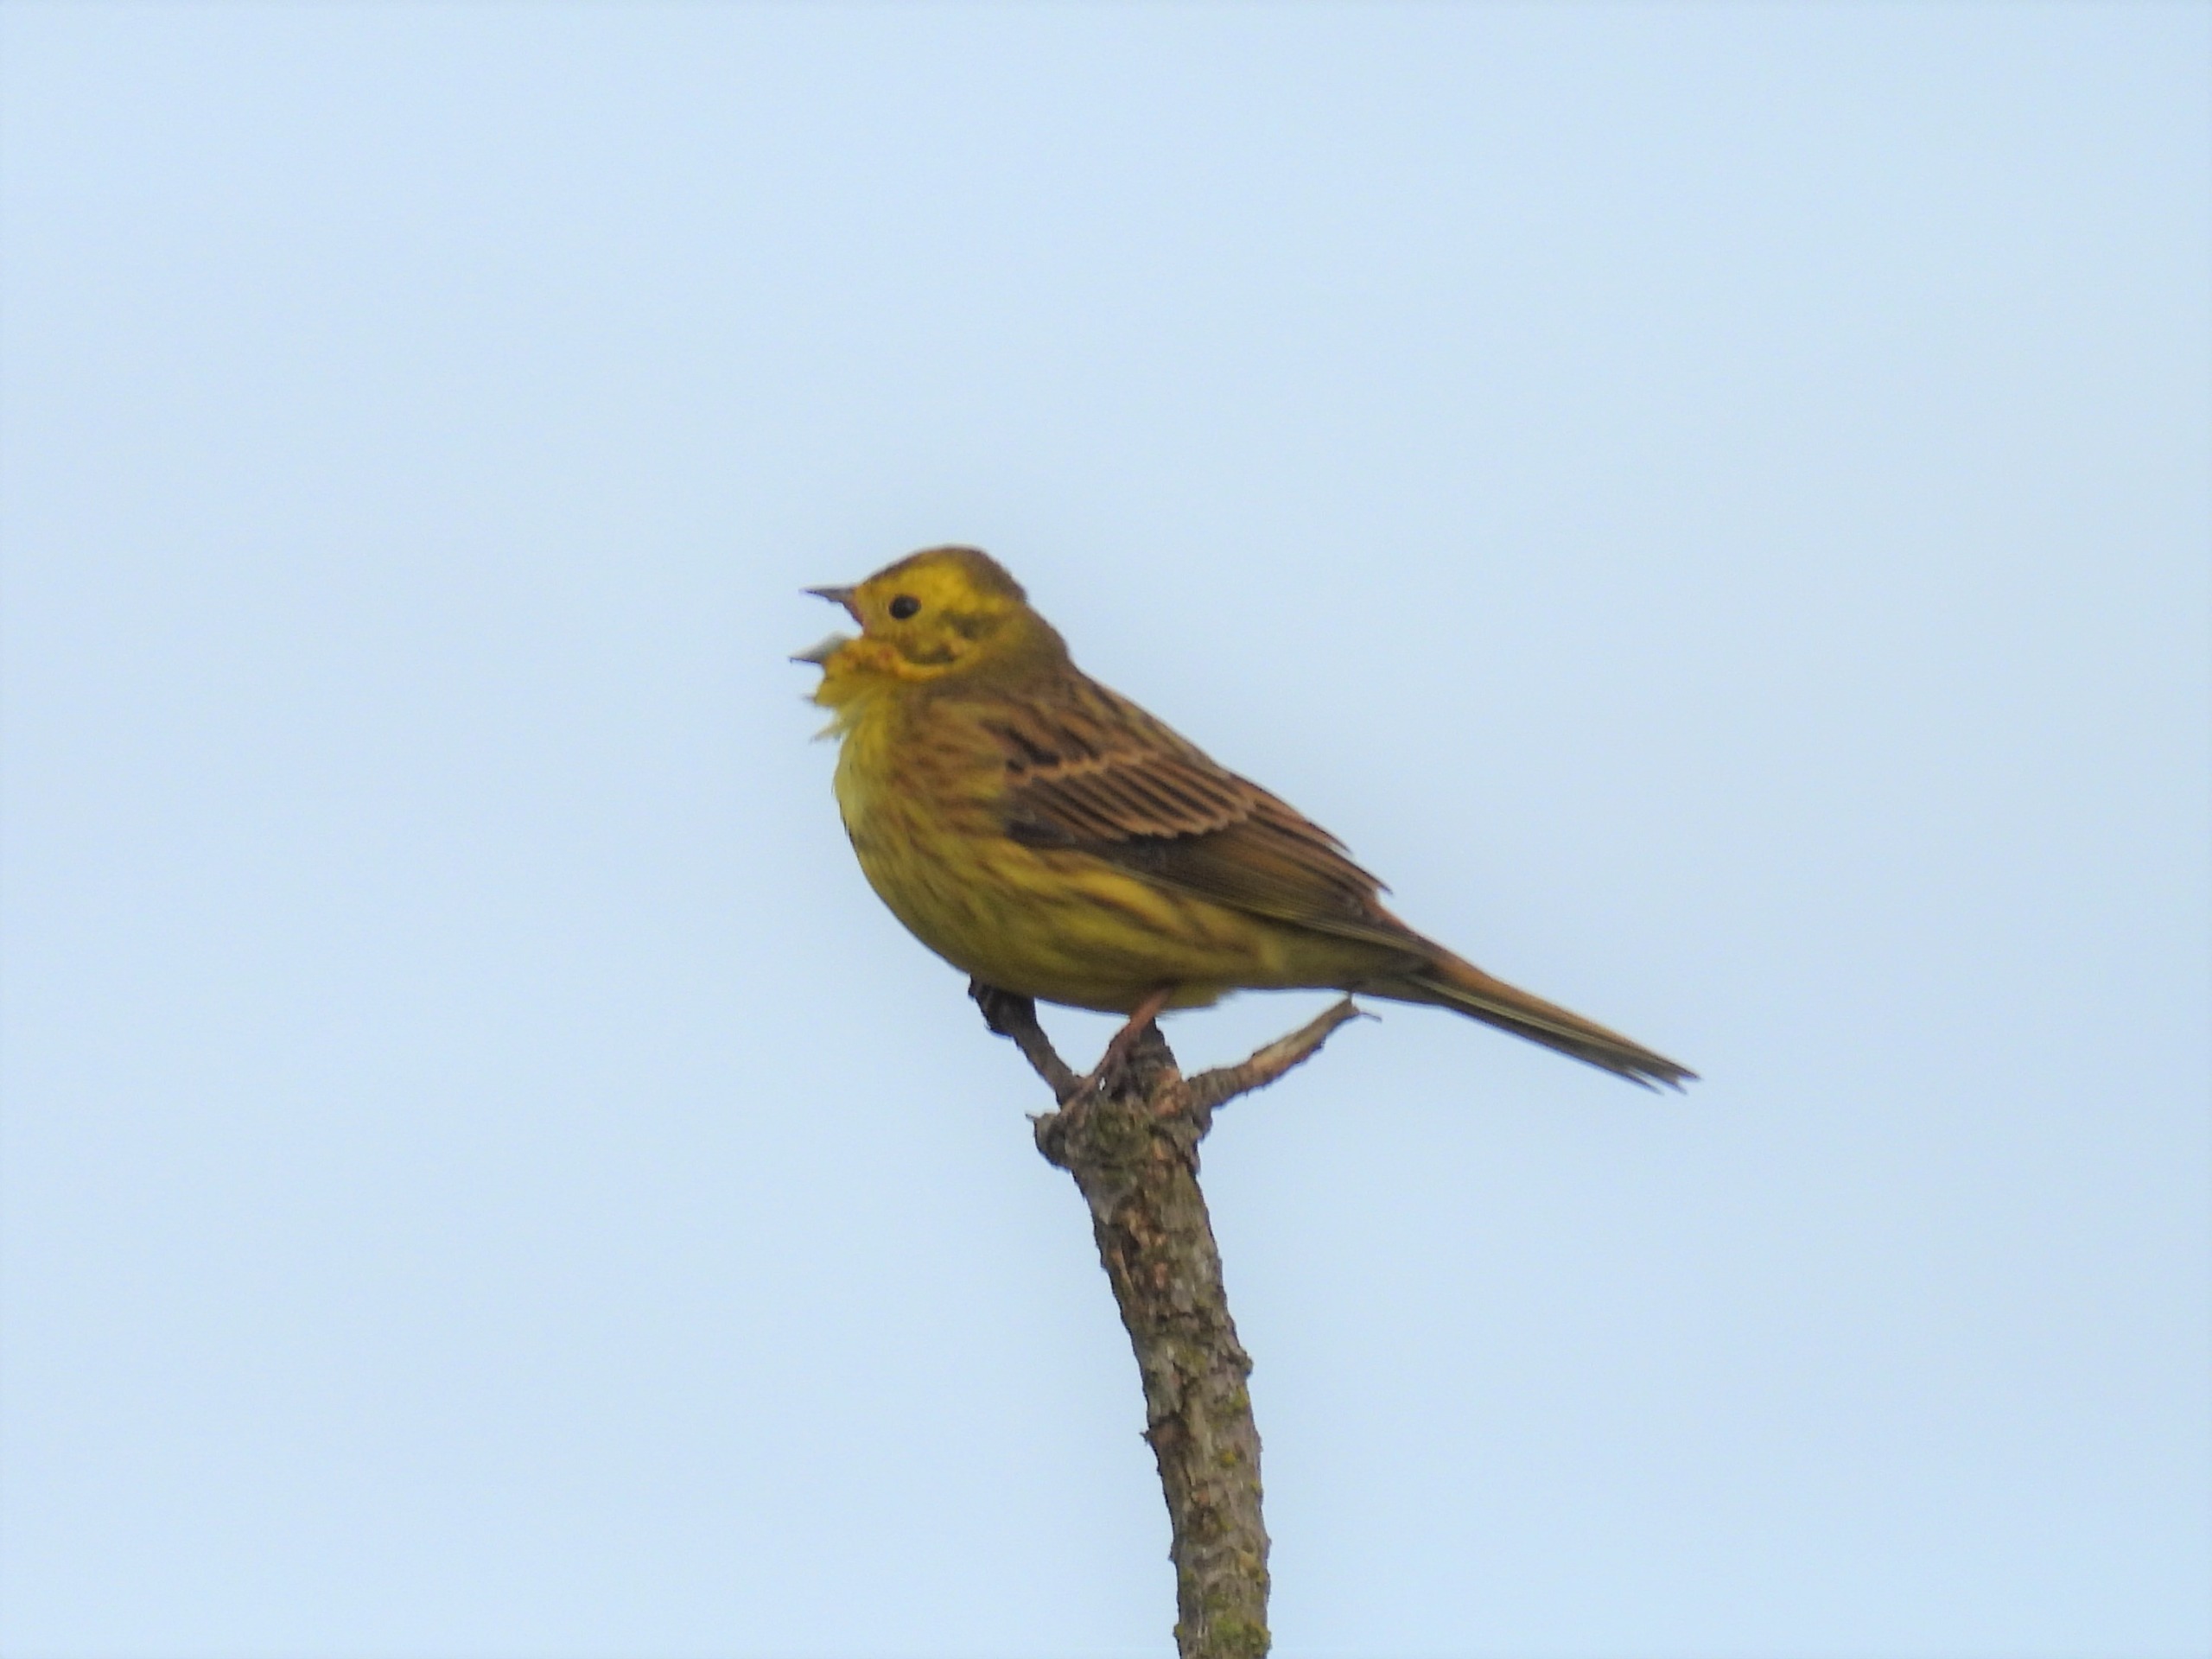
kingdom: Animalia
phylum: Chordata
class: Aves
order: Passeriformes
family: Emberizidae
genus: Emberiza
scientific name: Emberiza citrinella
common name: Gulspurv
